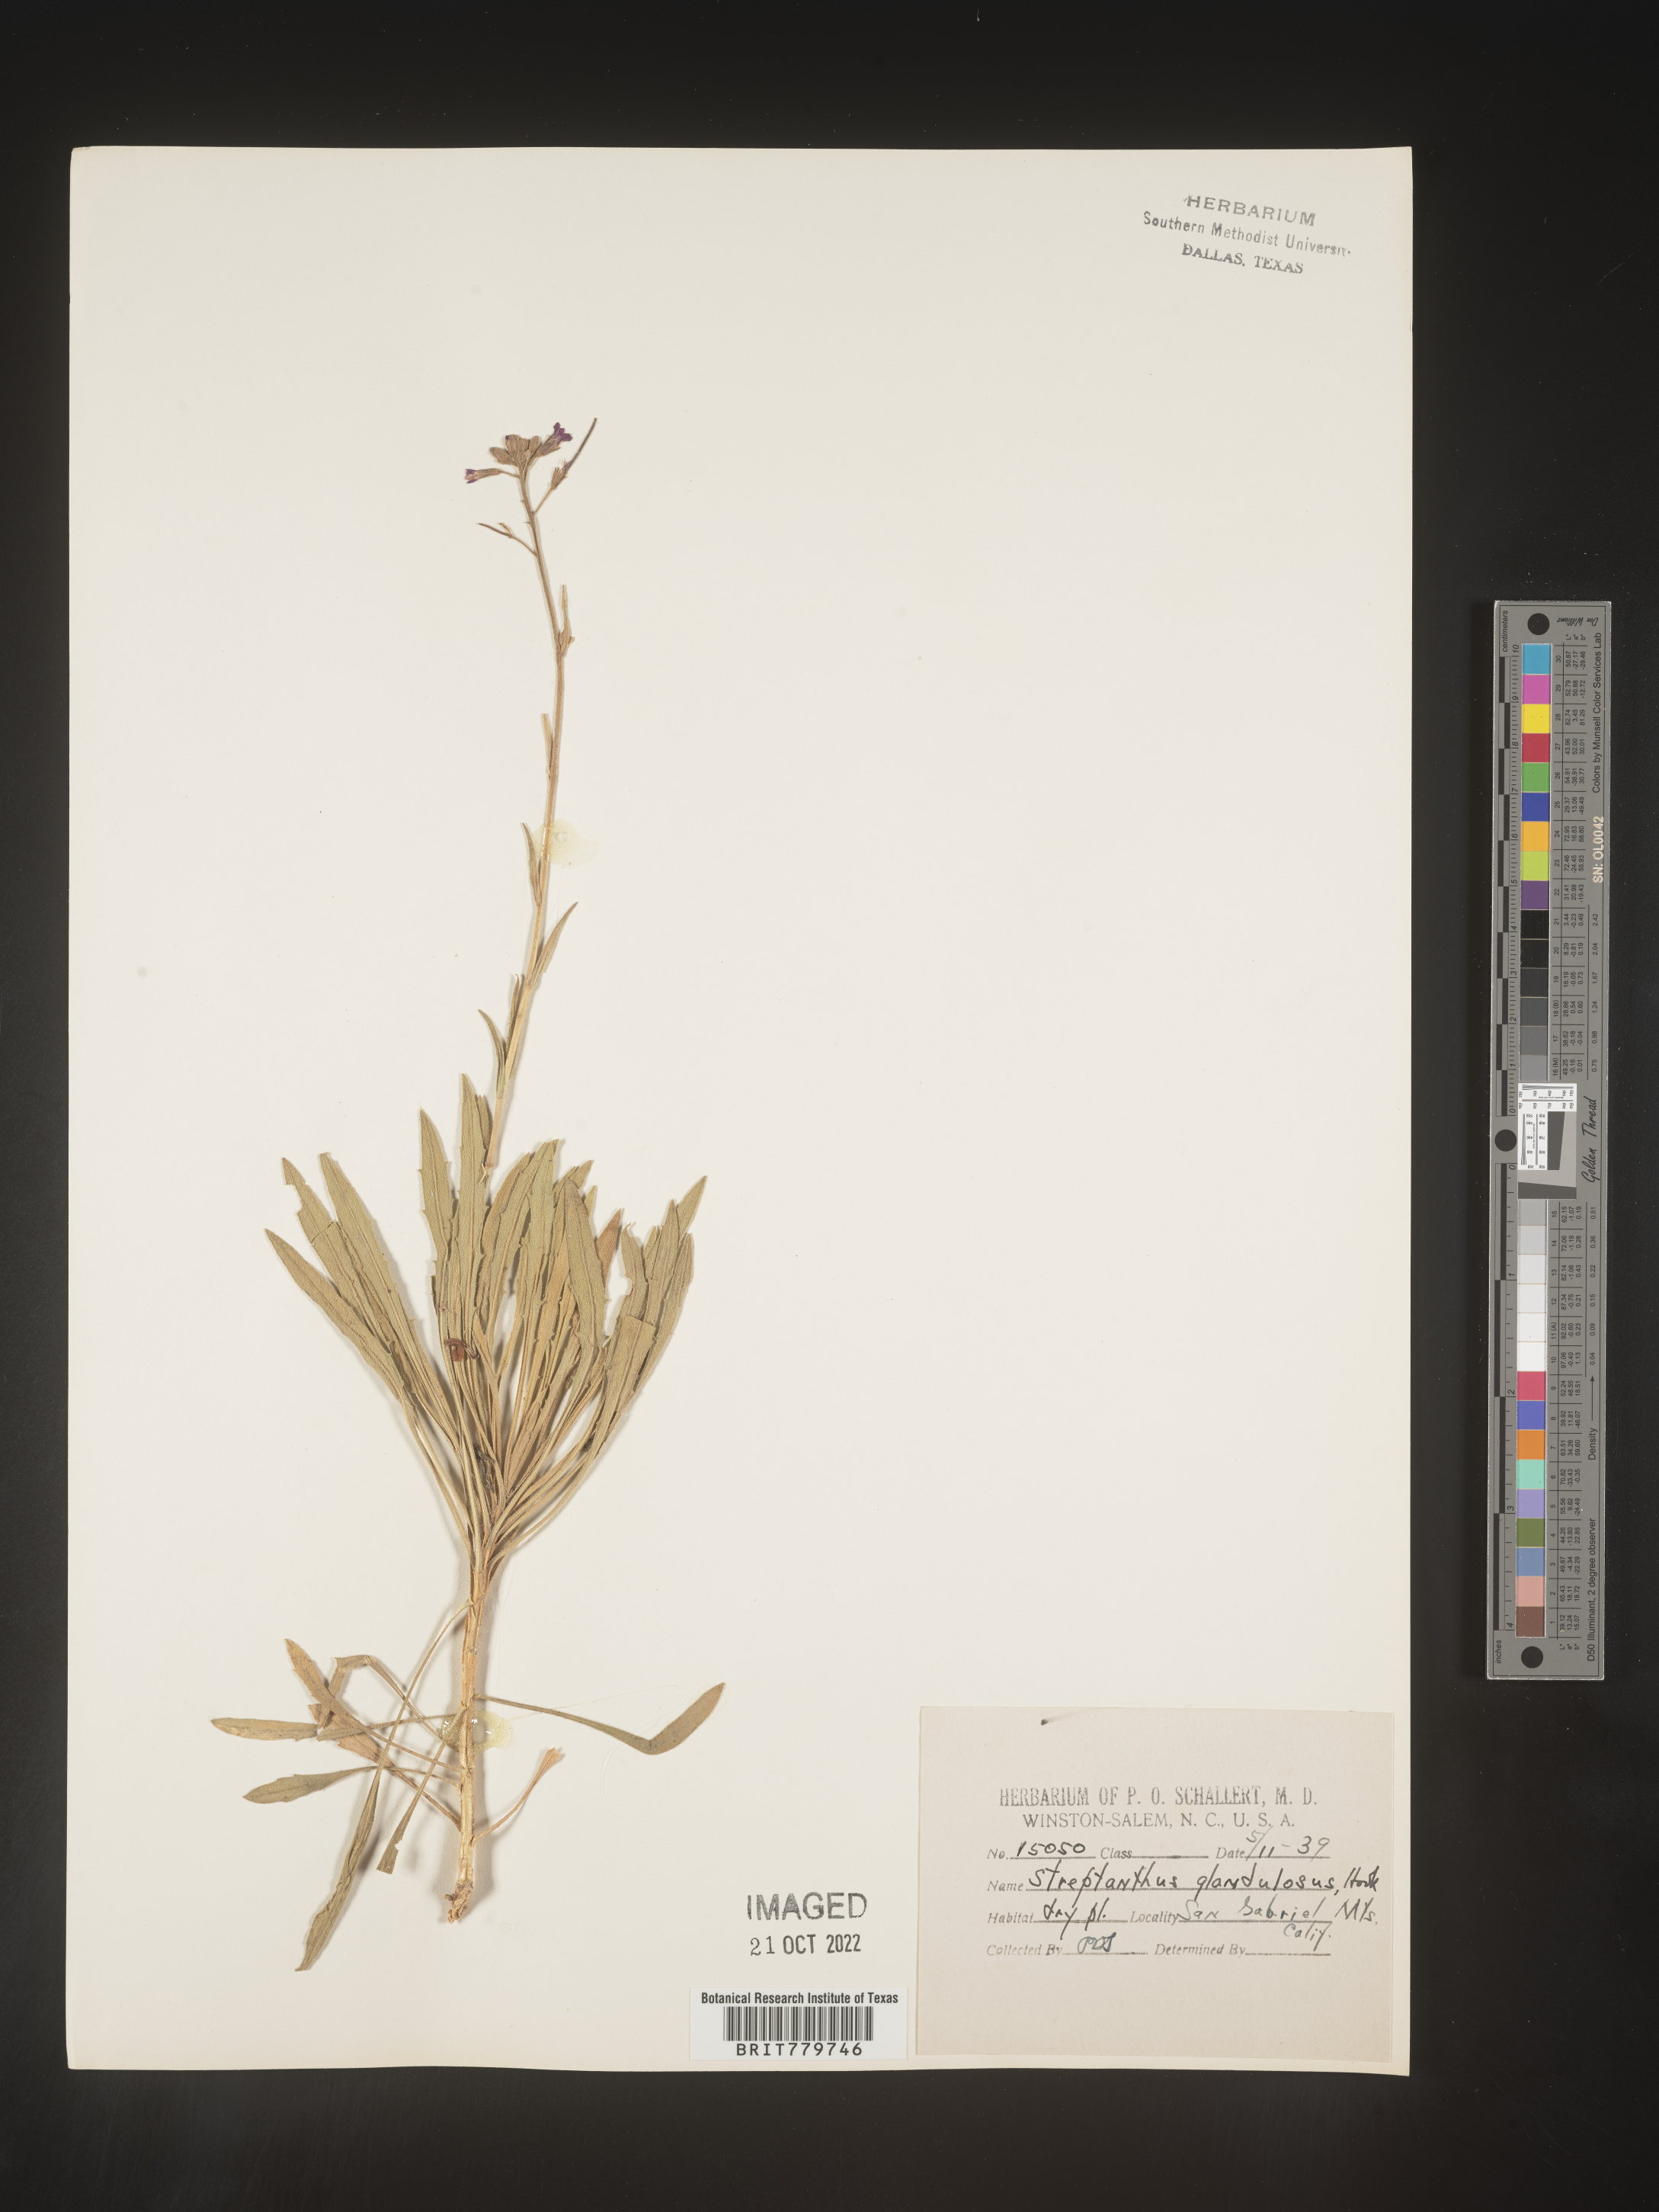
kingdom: Plantae
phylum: Tracheophyta
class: Magnoliopsida
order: Brassicales
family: Brassicaceae
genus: Streptanthus
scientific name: Streptanthus
